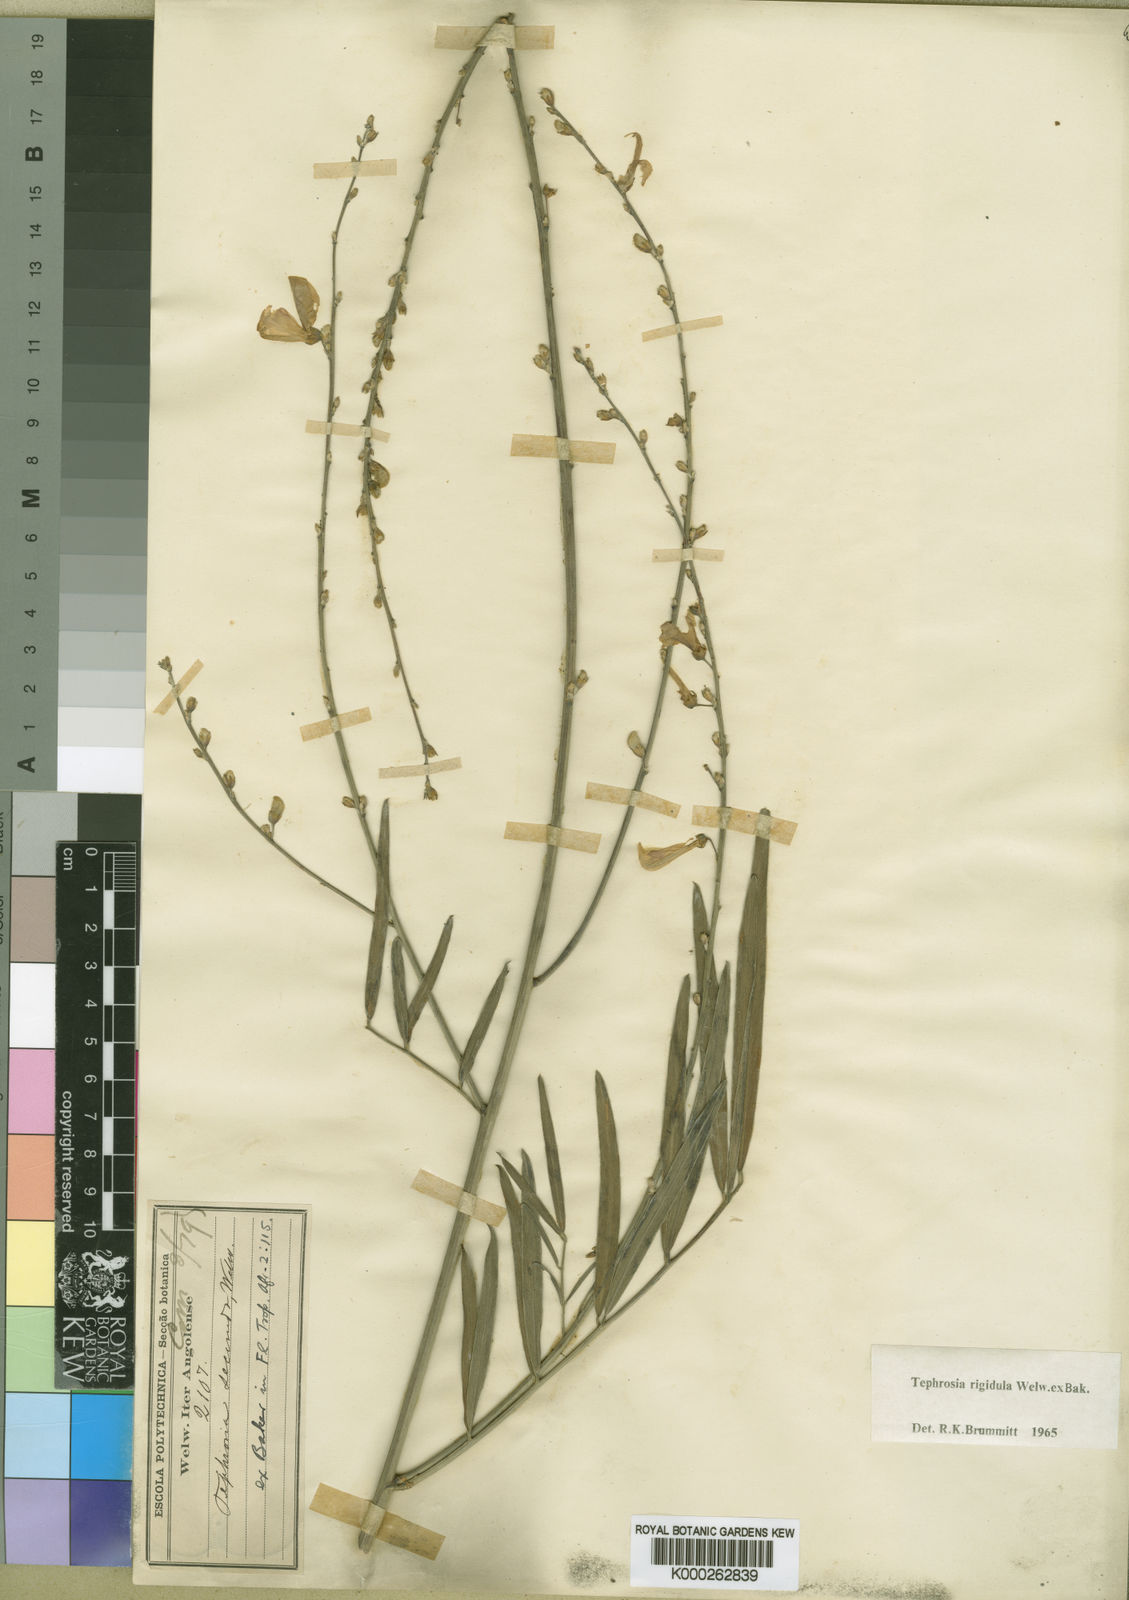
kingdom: Plantae
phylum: Tracheophyta
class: Magnoliopsida
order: Fabales
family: Fabaceae
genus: Tephrosia
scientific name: Tephrosia rigidula
